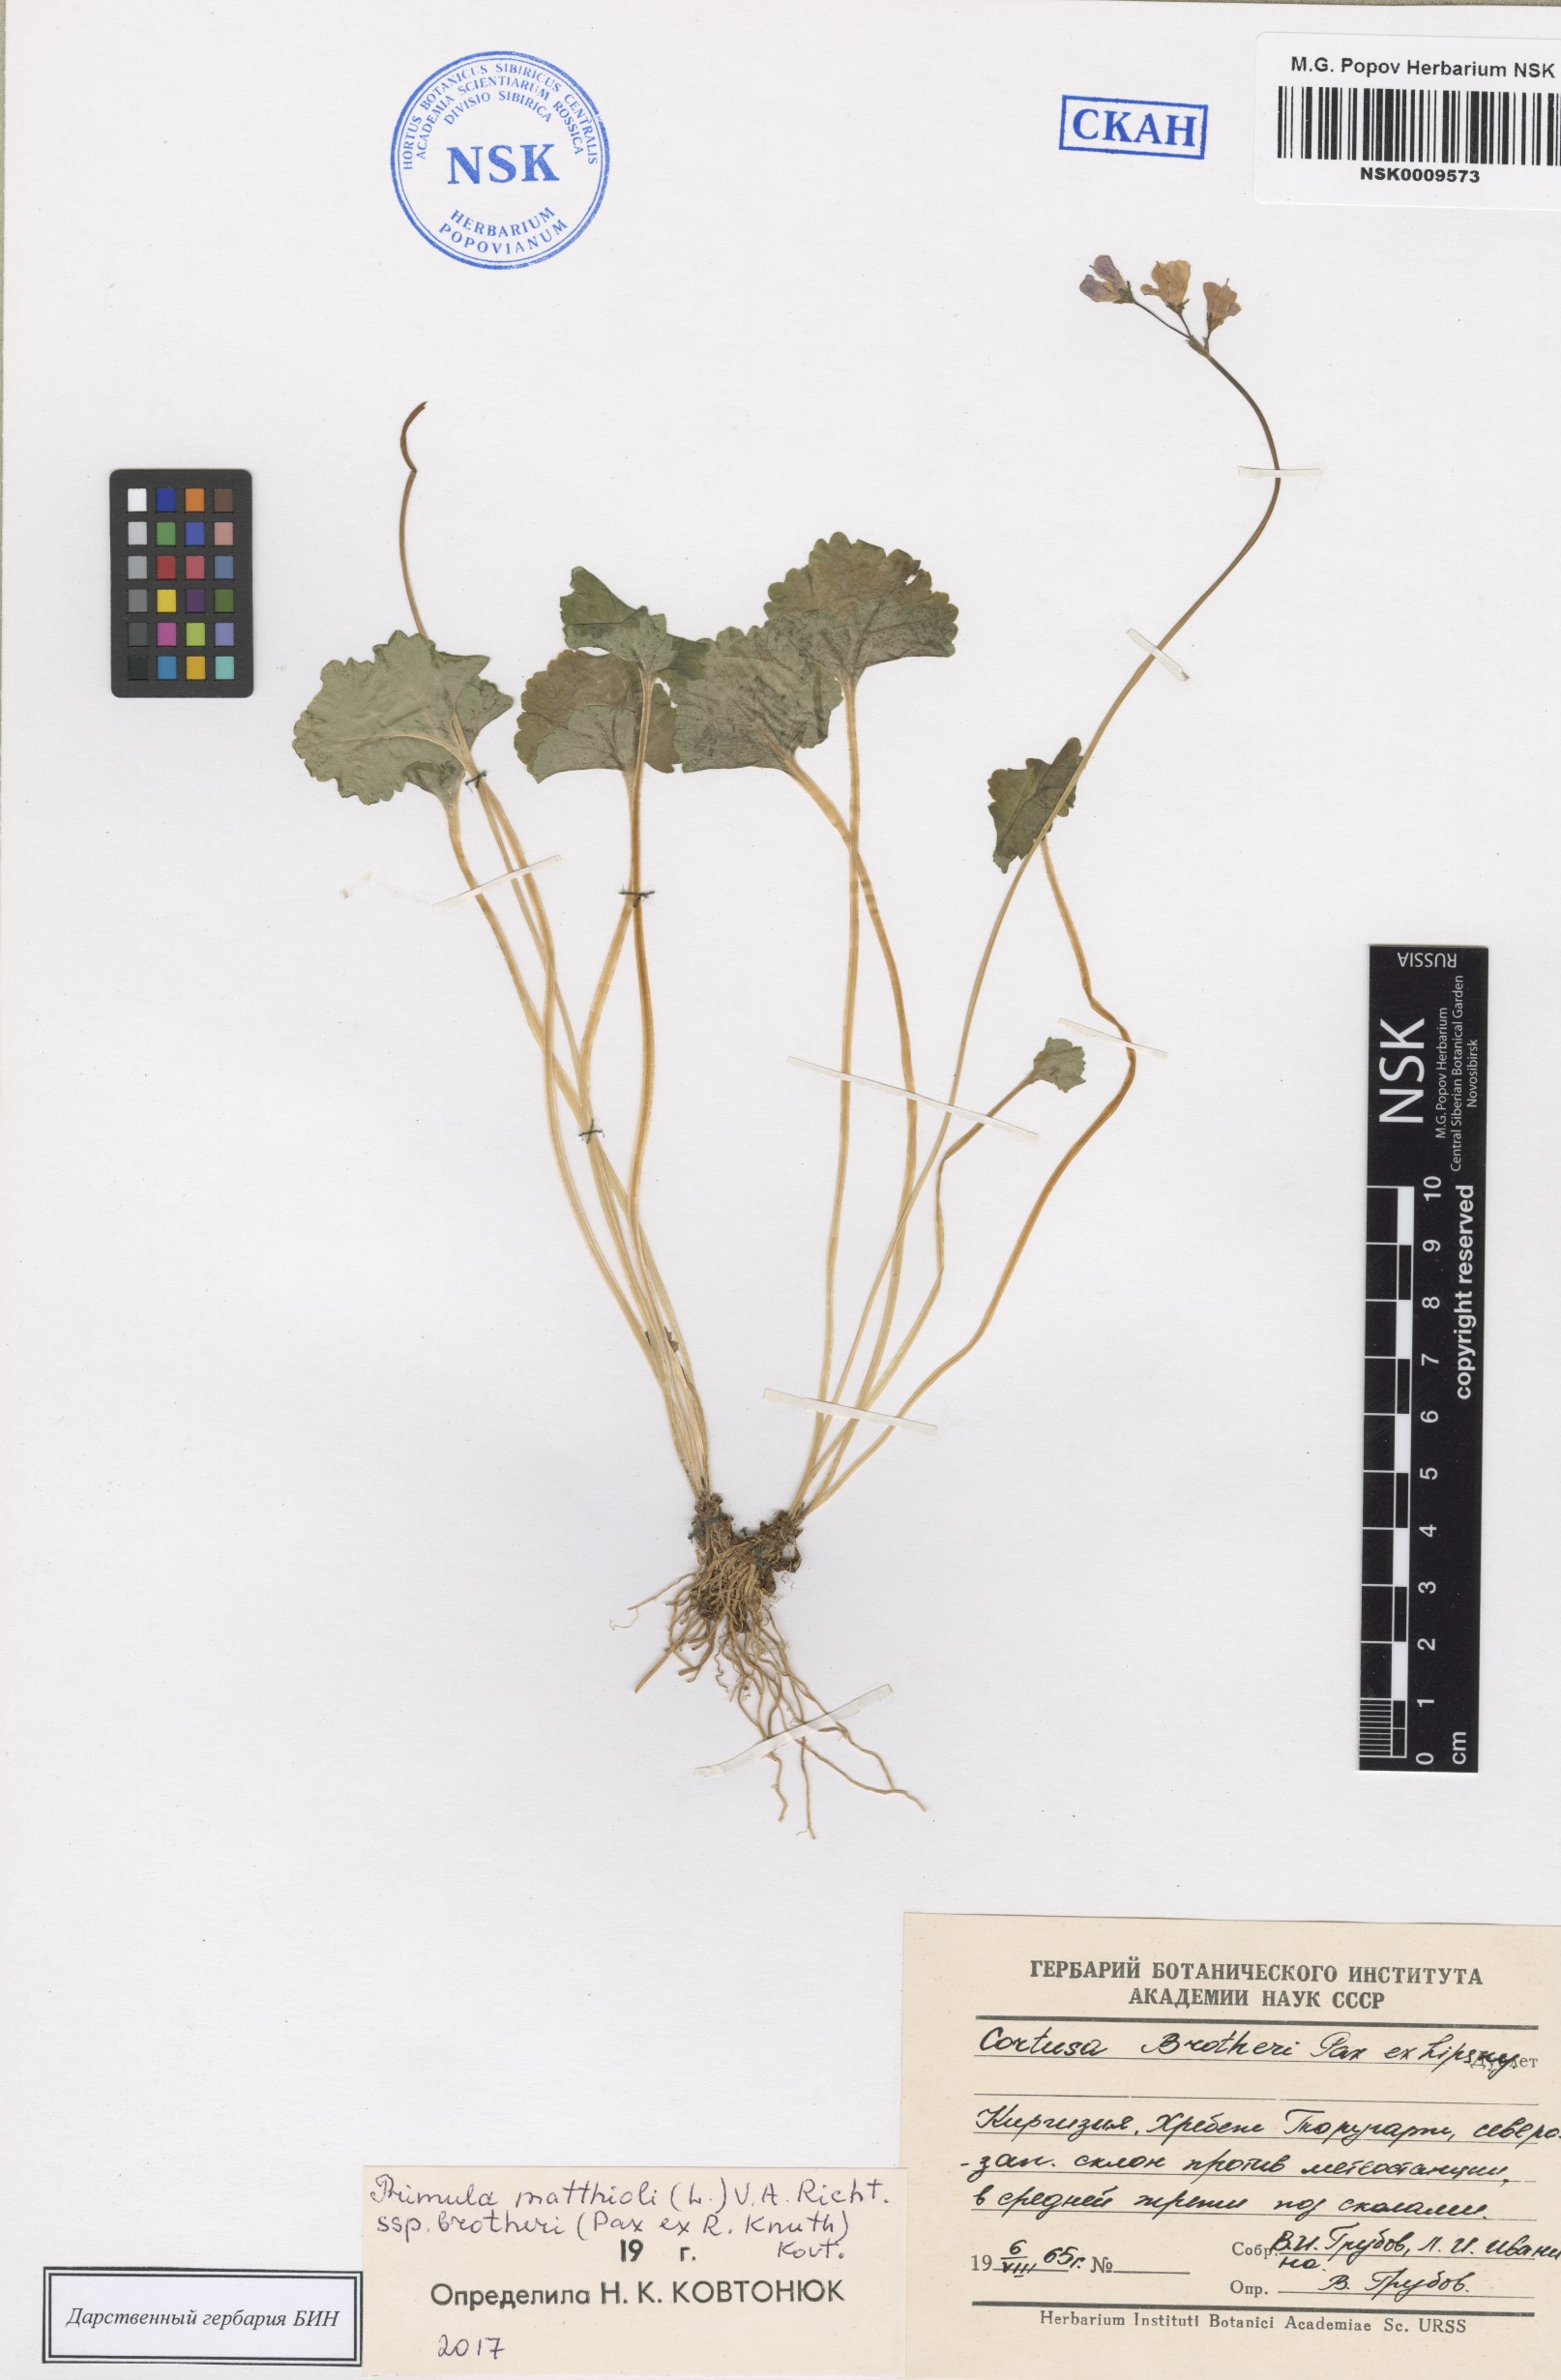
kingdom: Plantae
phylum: Tracheophyta
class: Magnoliopsida
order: Ericales
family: Primulaceae
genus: Primula
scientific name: Primula matthioli
